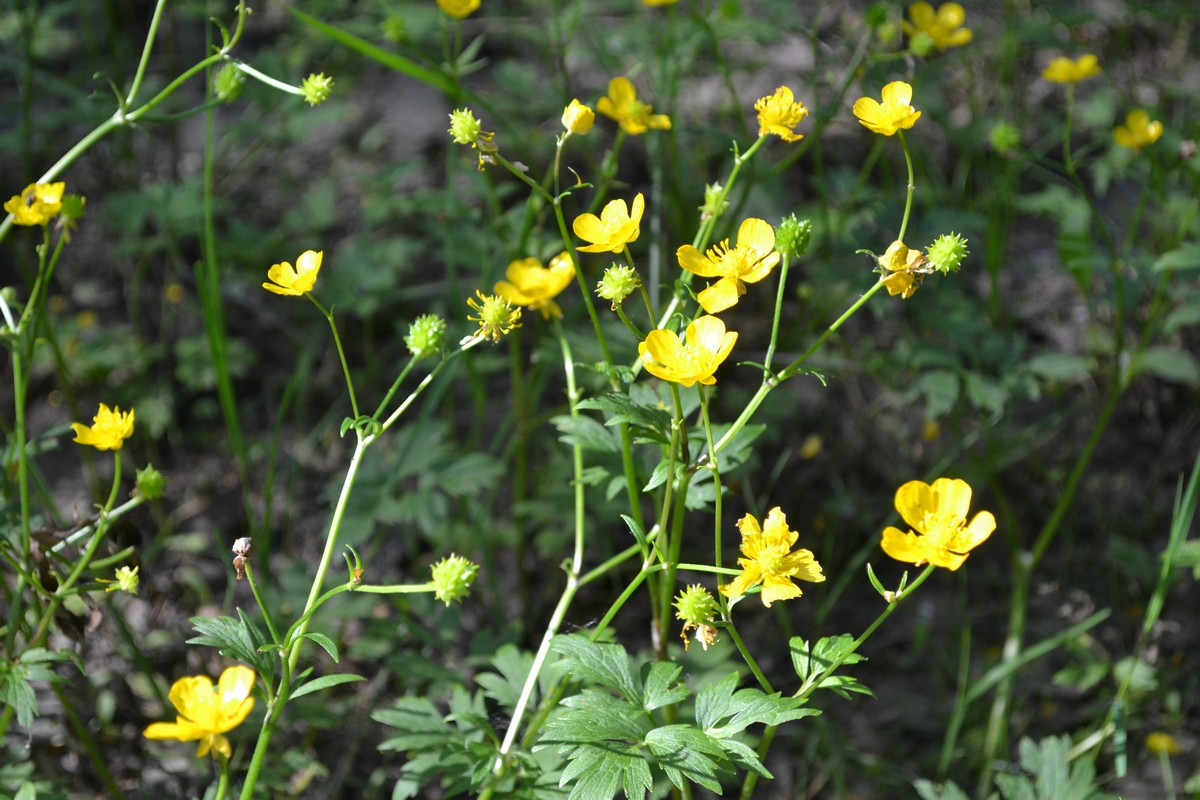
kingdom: Plantae
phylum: Tracheophyta
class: Magnoliopsida
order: Ranunculales
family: Ranunculaceae
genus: Ranunculus
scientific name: Ranunculus acris
